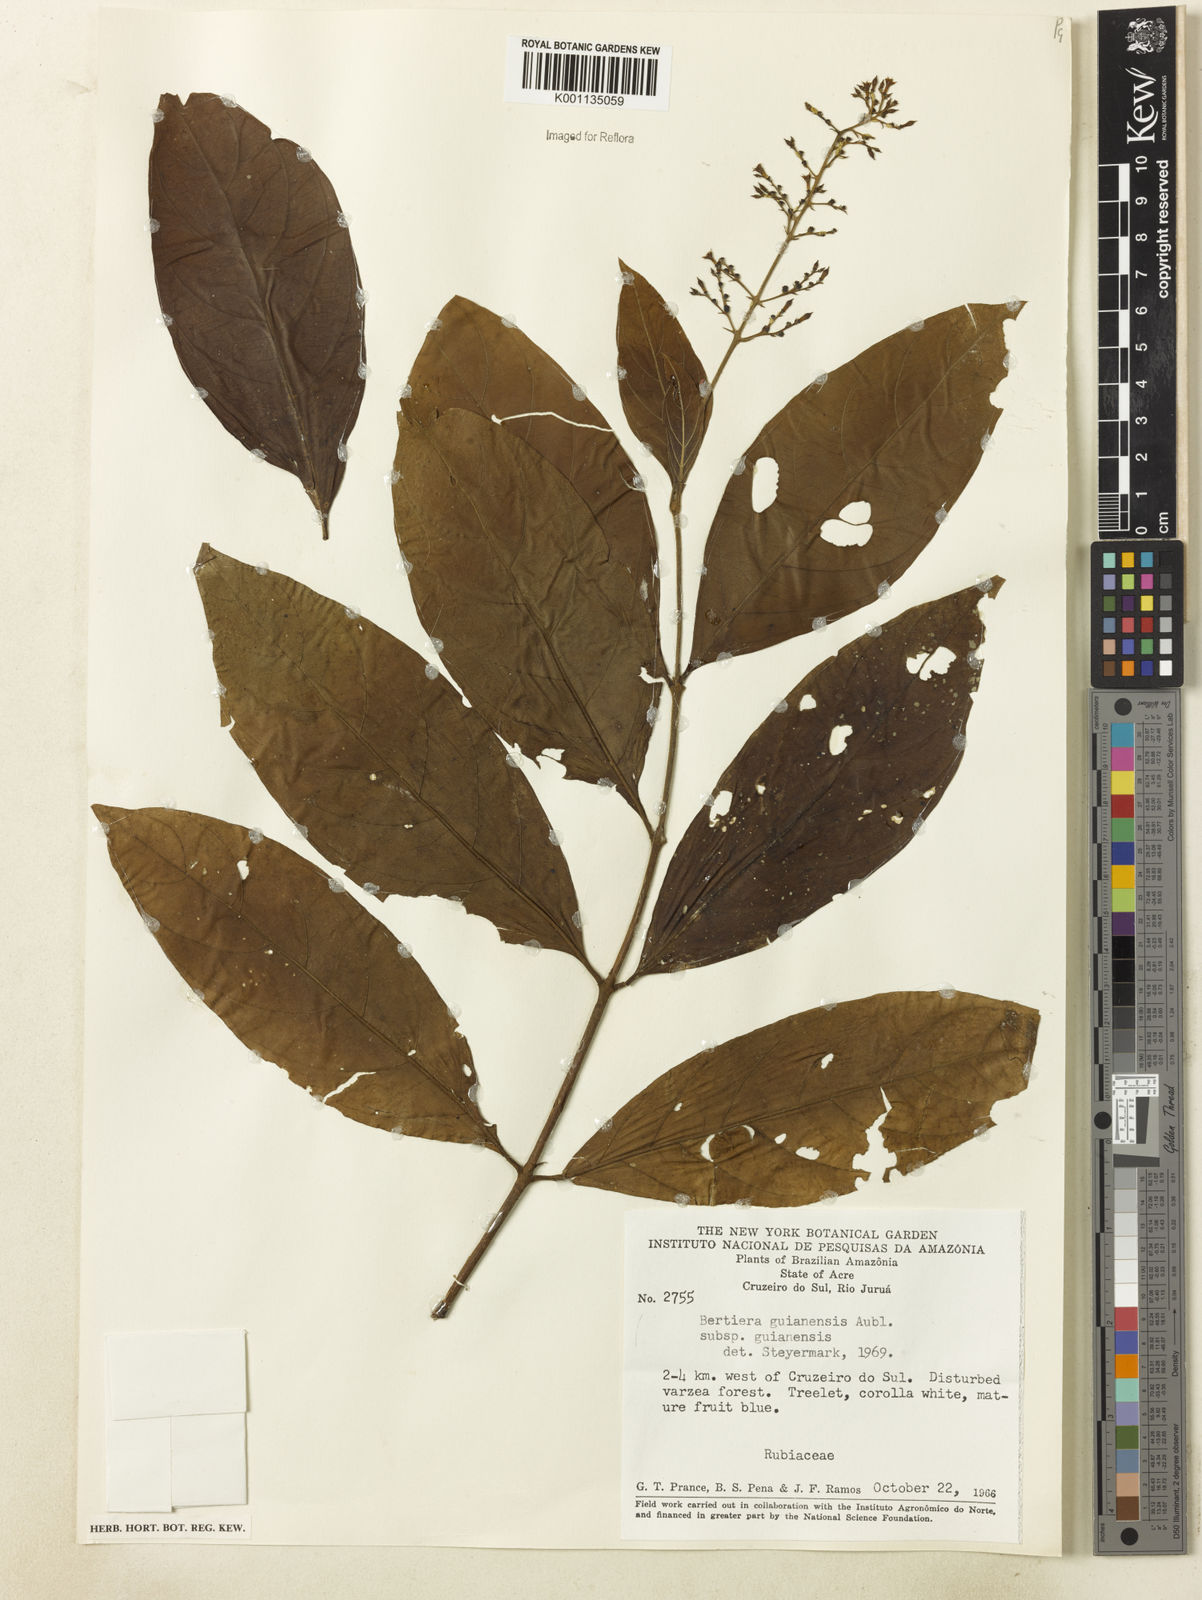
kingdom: Plantae
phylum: Tracheophyta
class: Magnoliopsida
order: Gentianales
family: Rubiaceae
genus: Bertiera
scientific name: Bertiera guianensis
